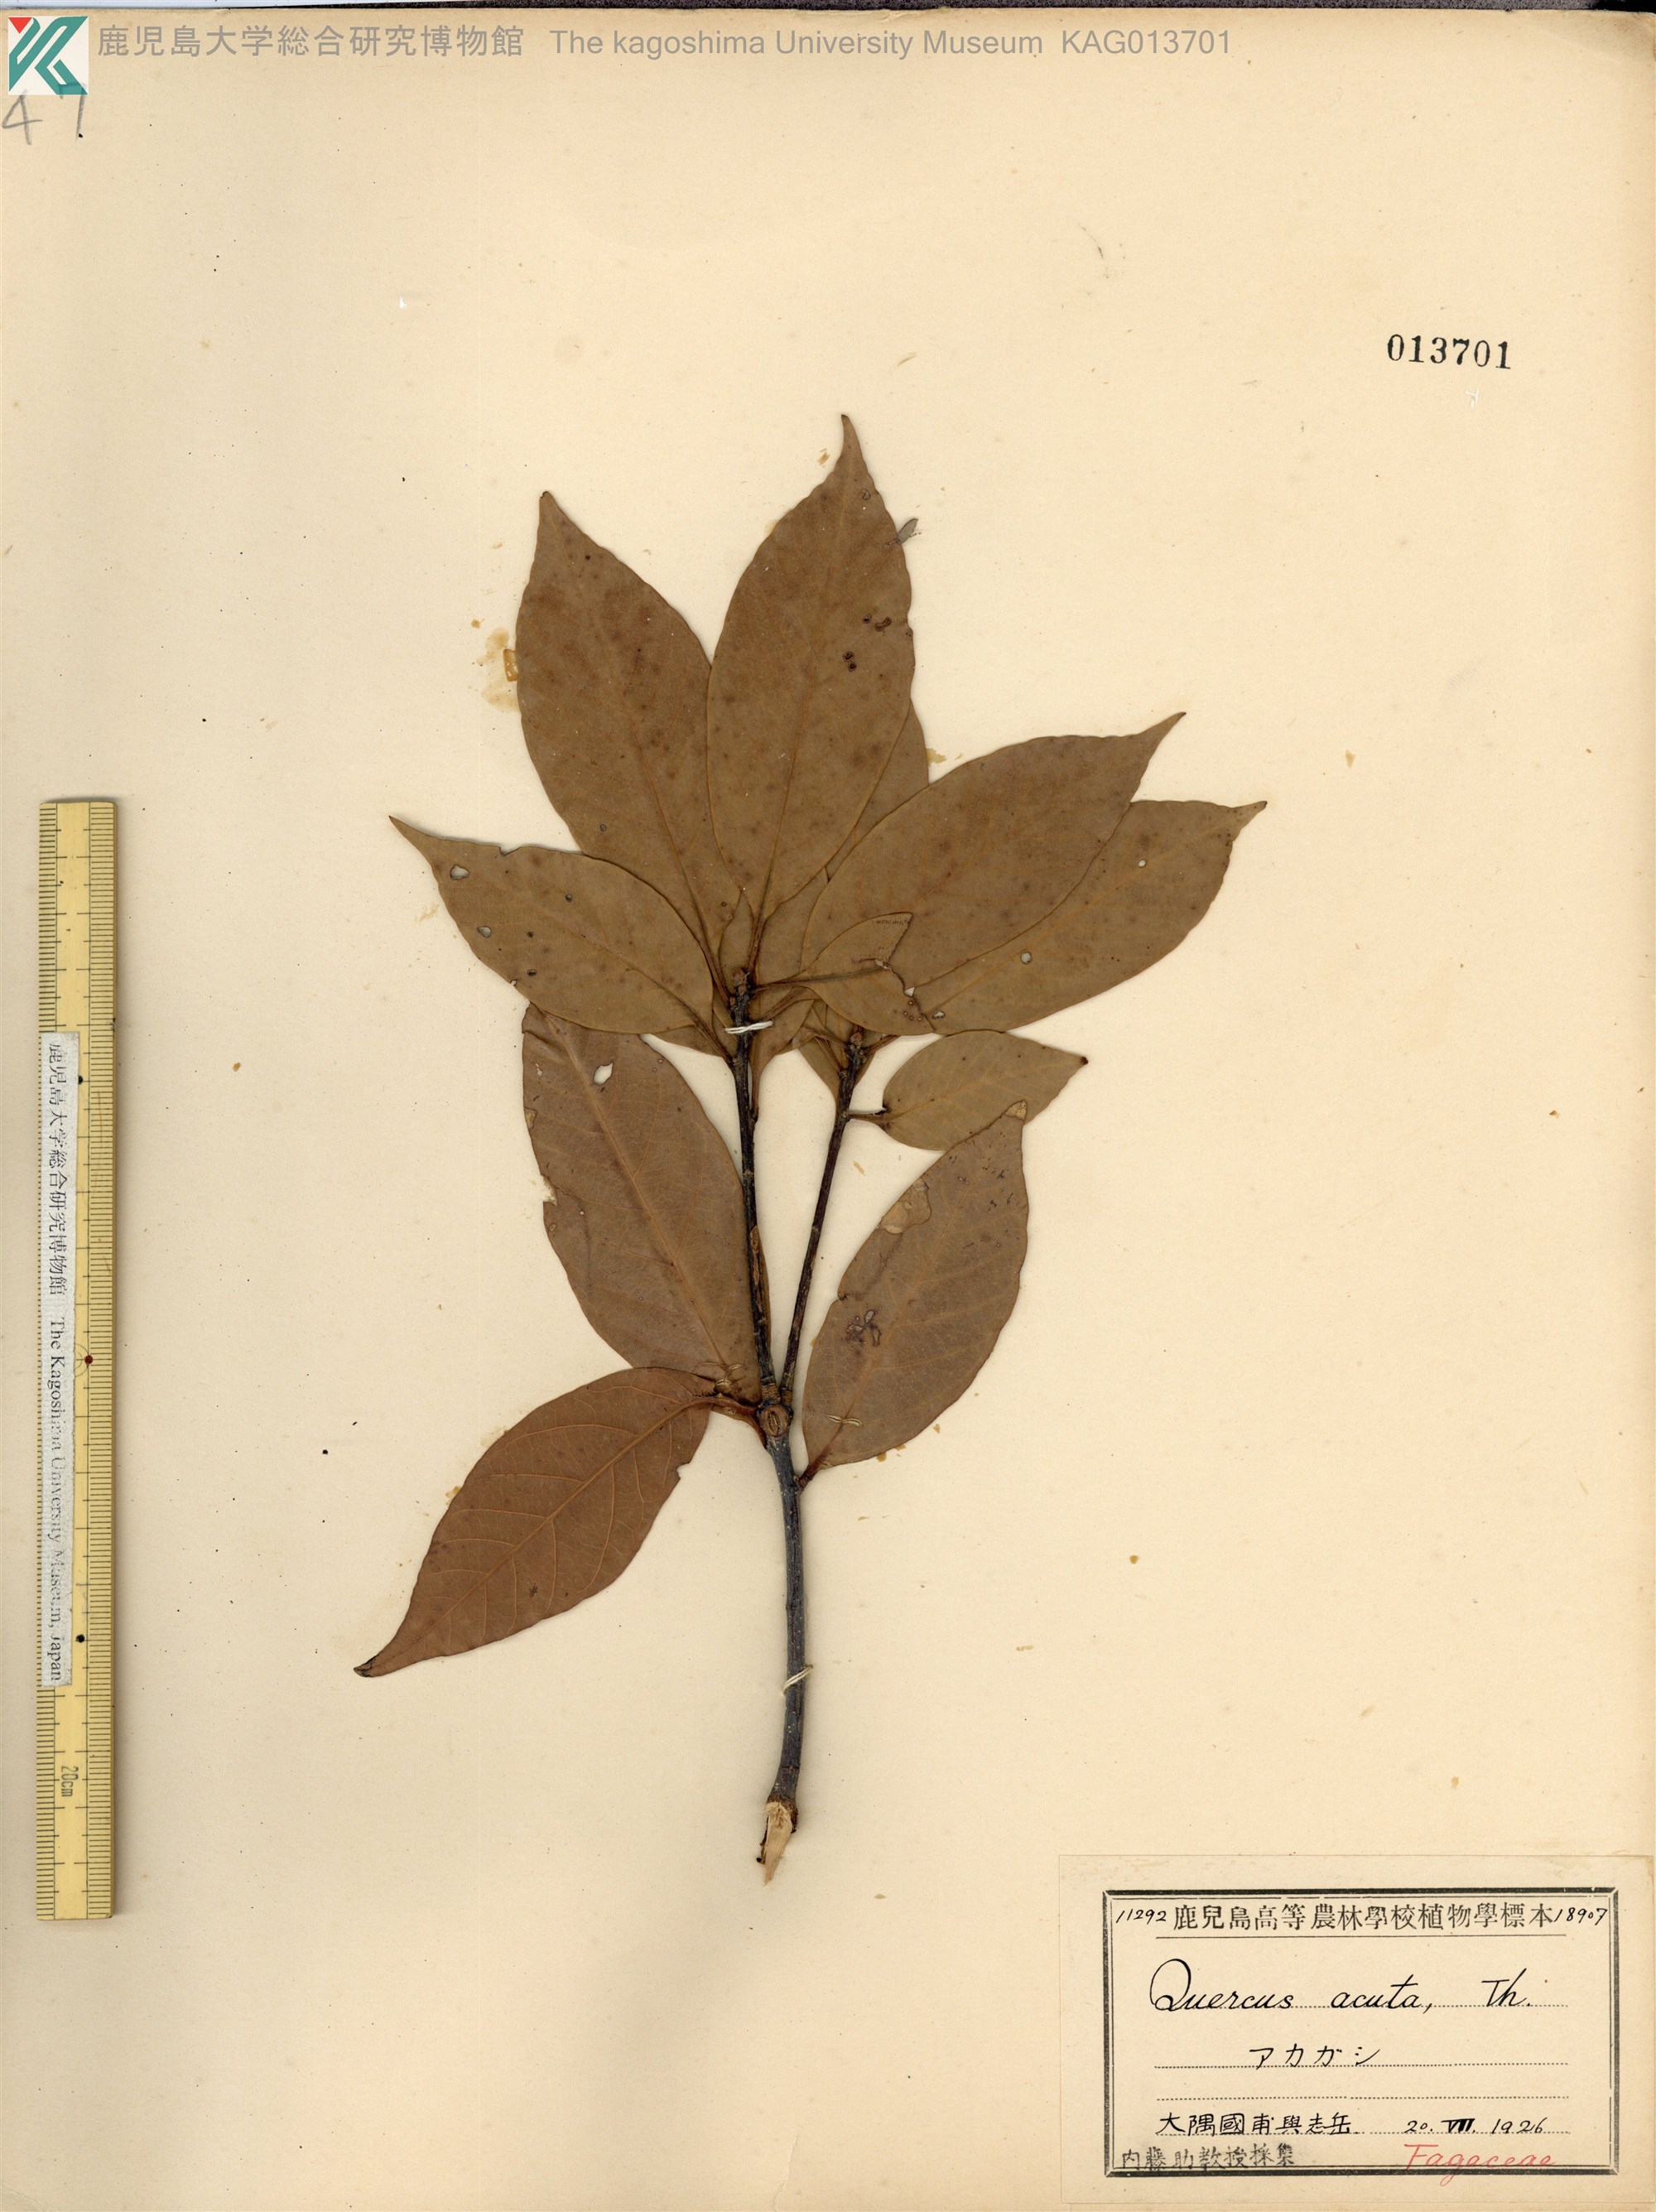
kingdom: Plantae
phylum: Tracheophyta
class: Magnoliopsida
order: Fagales
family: Fagaceae
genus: Quercus
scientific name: Quercus acuta
